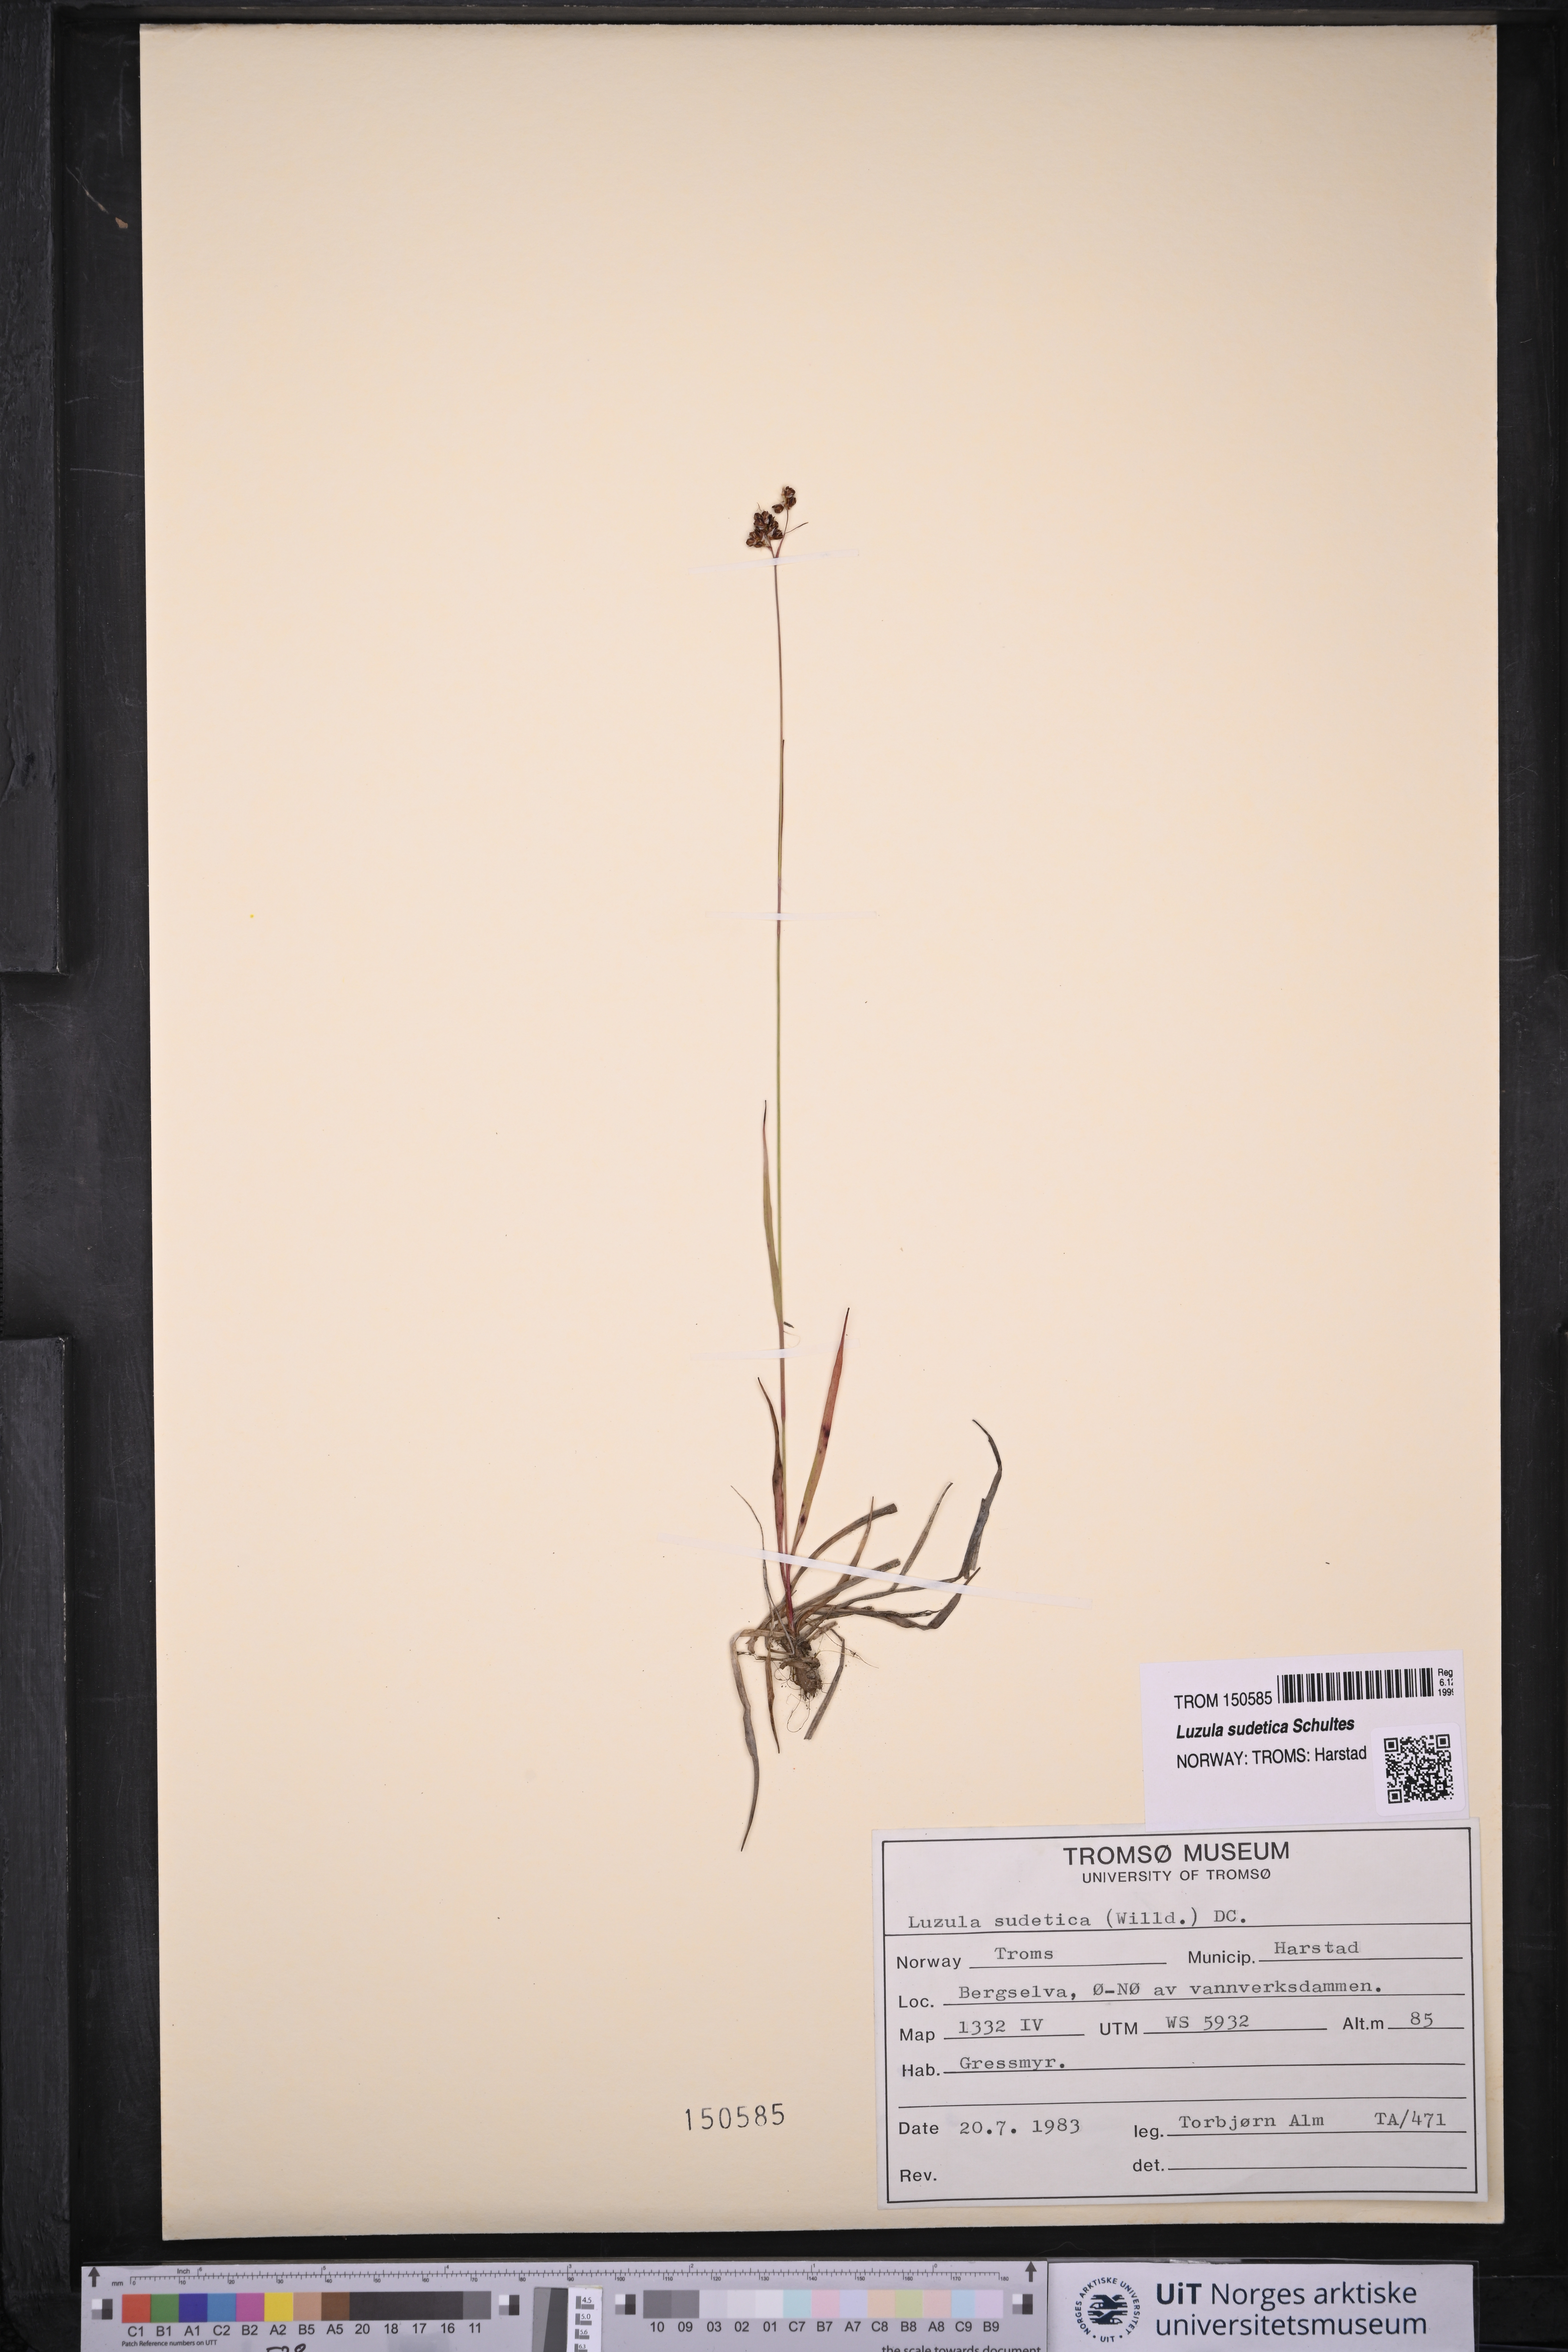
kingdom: Plantae
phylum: Tracheophyta
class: Liliopsida
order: Poales
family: Juncaceae
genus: Luzula
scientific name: Luzula sudetica
